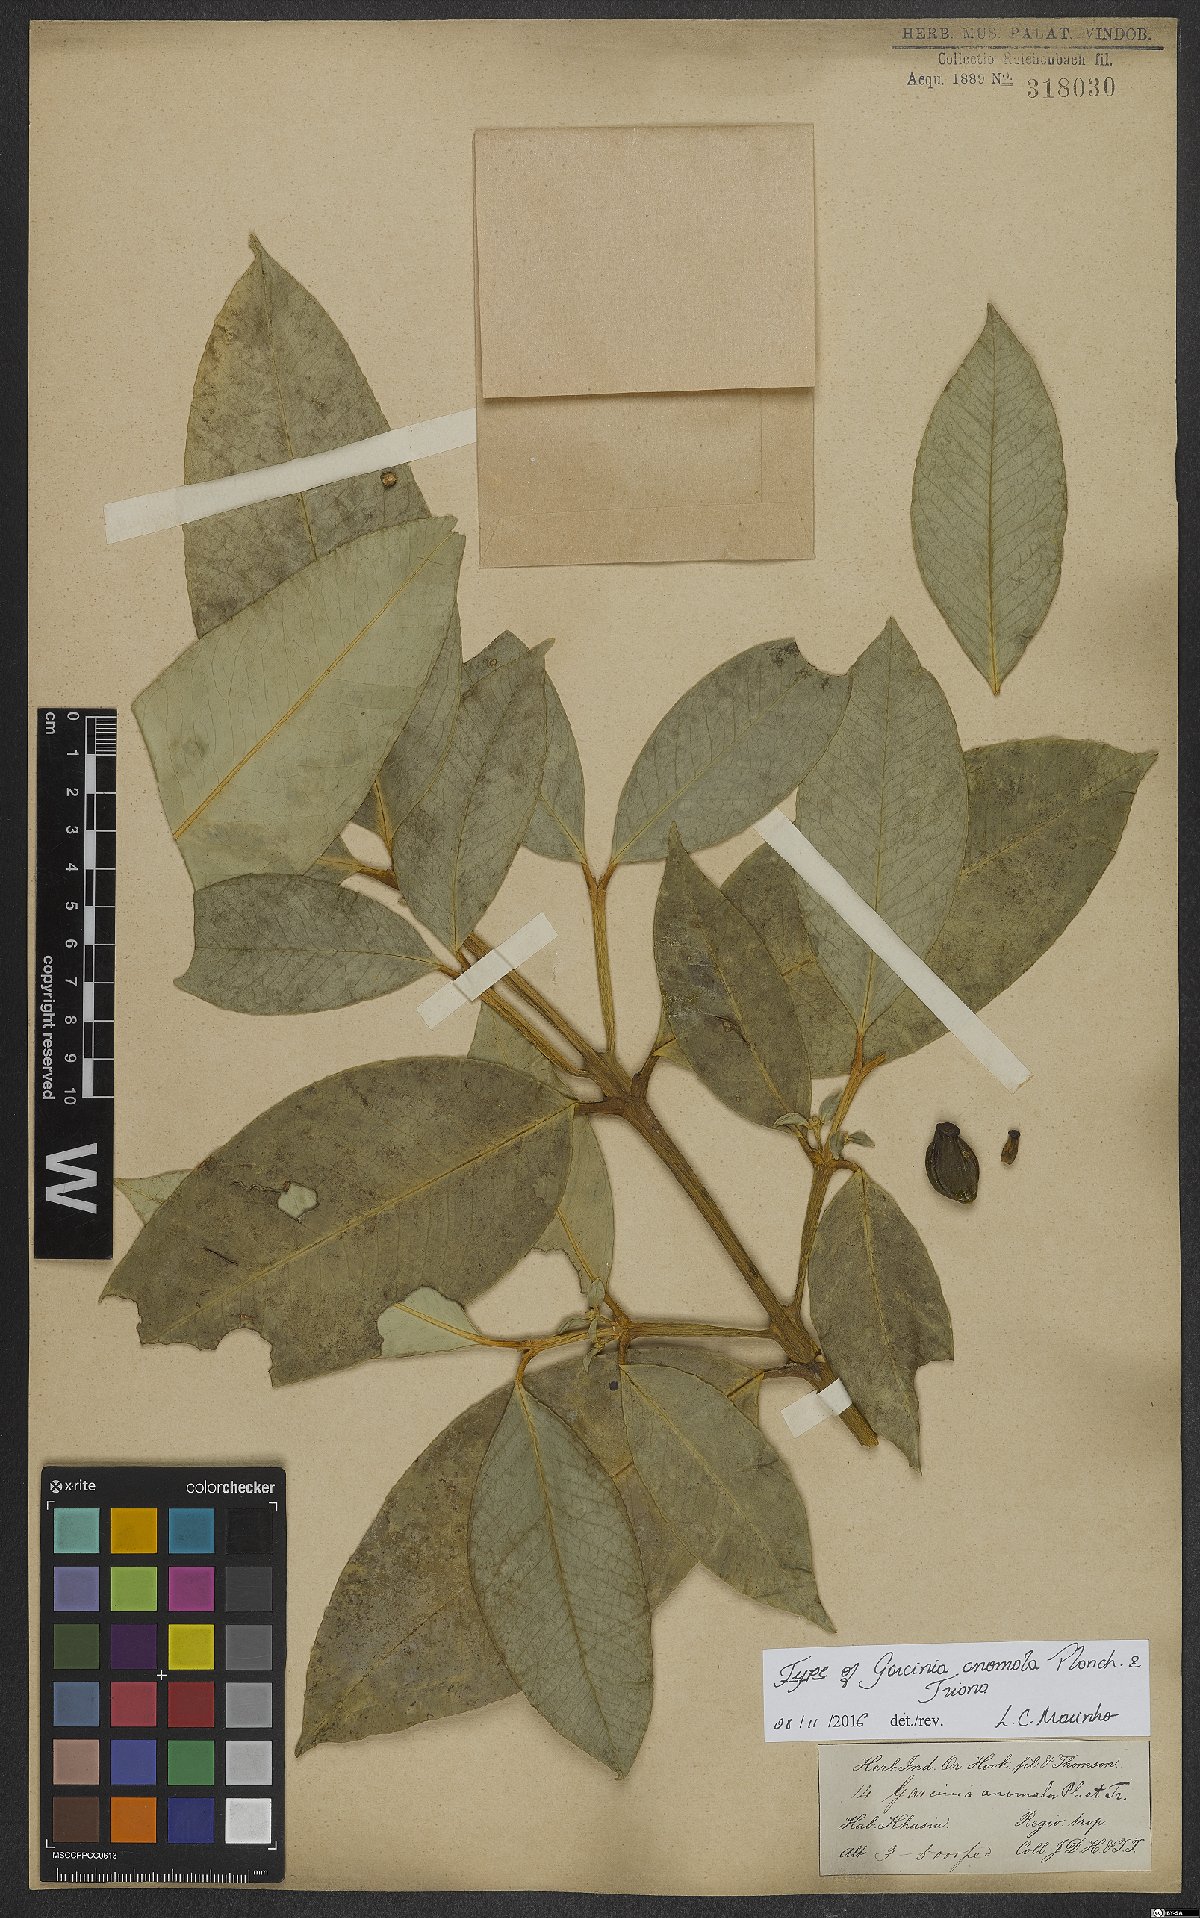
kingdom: Plantae
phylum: Tracheophyta
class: Magnoliopsida
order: Malpighiales
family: Clusiaceae
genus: Garcinia
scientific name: Garcinia anomala
